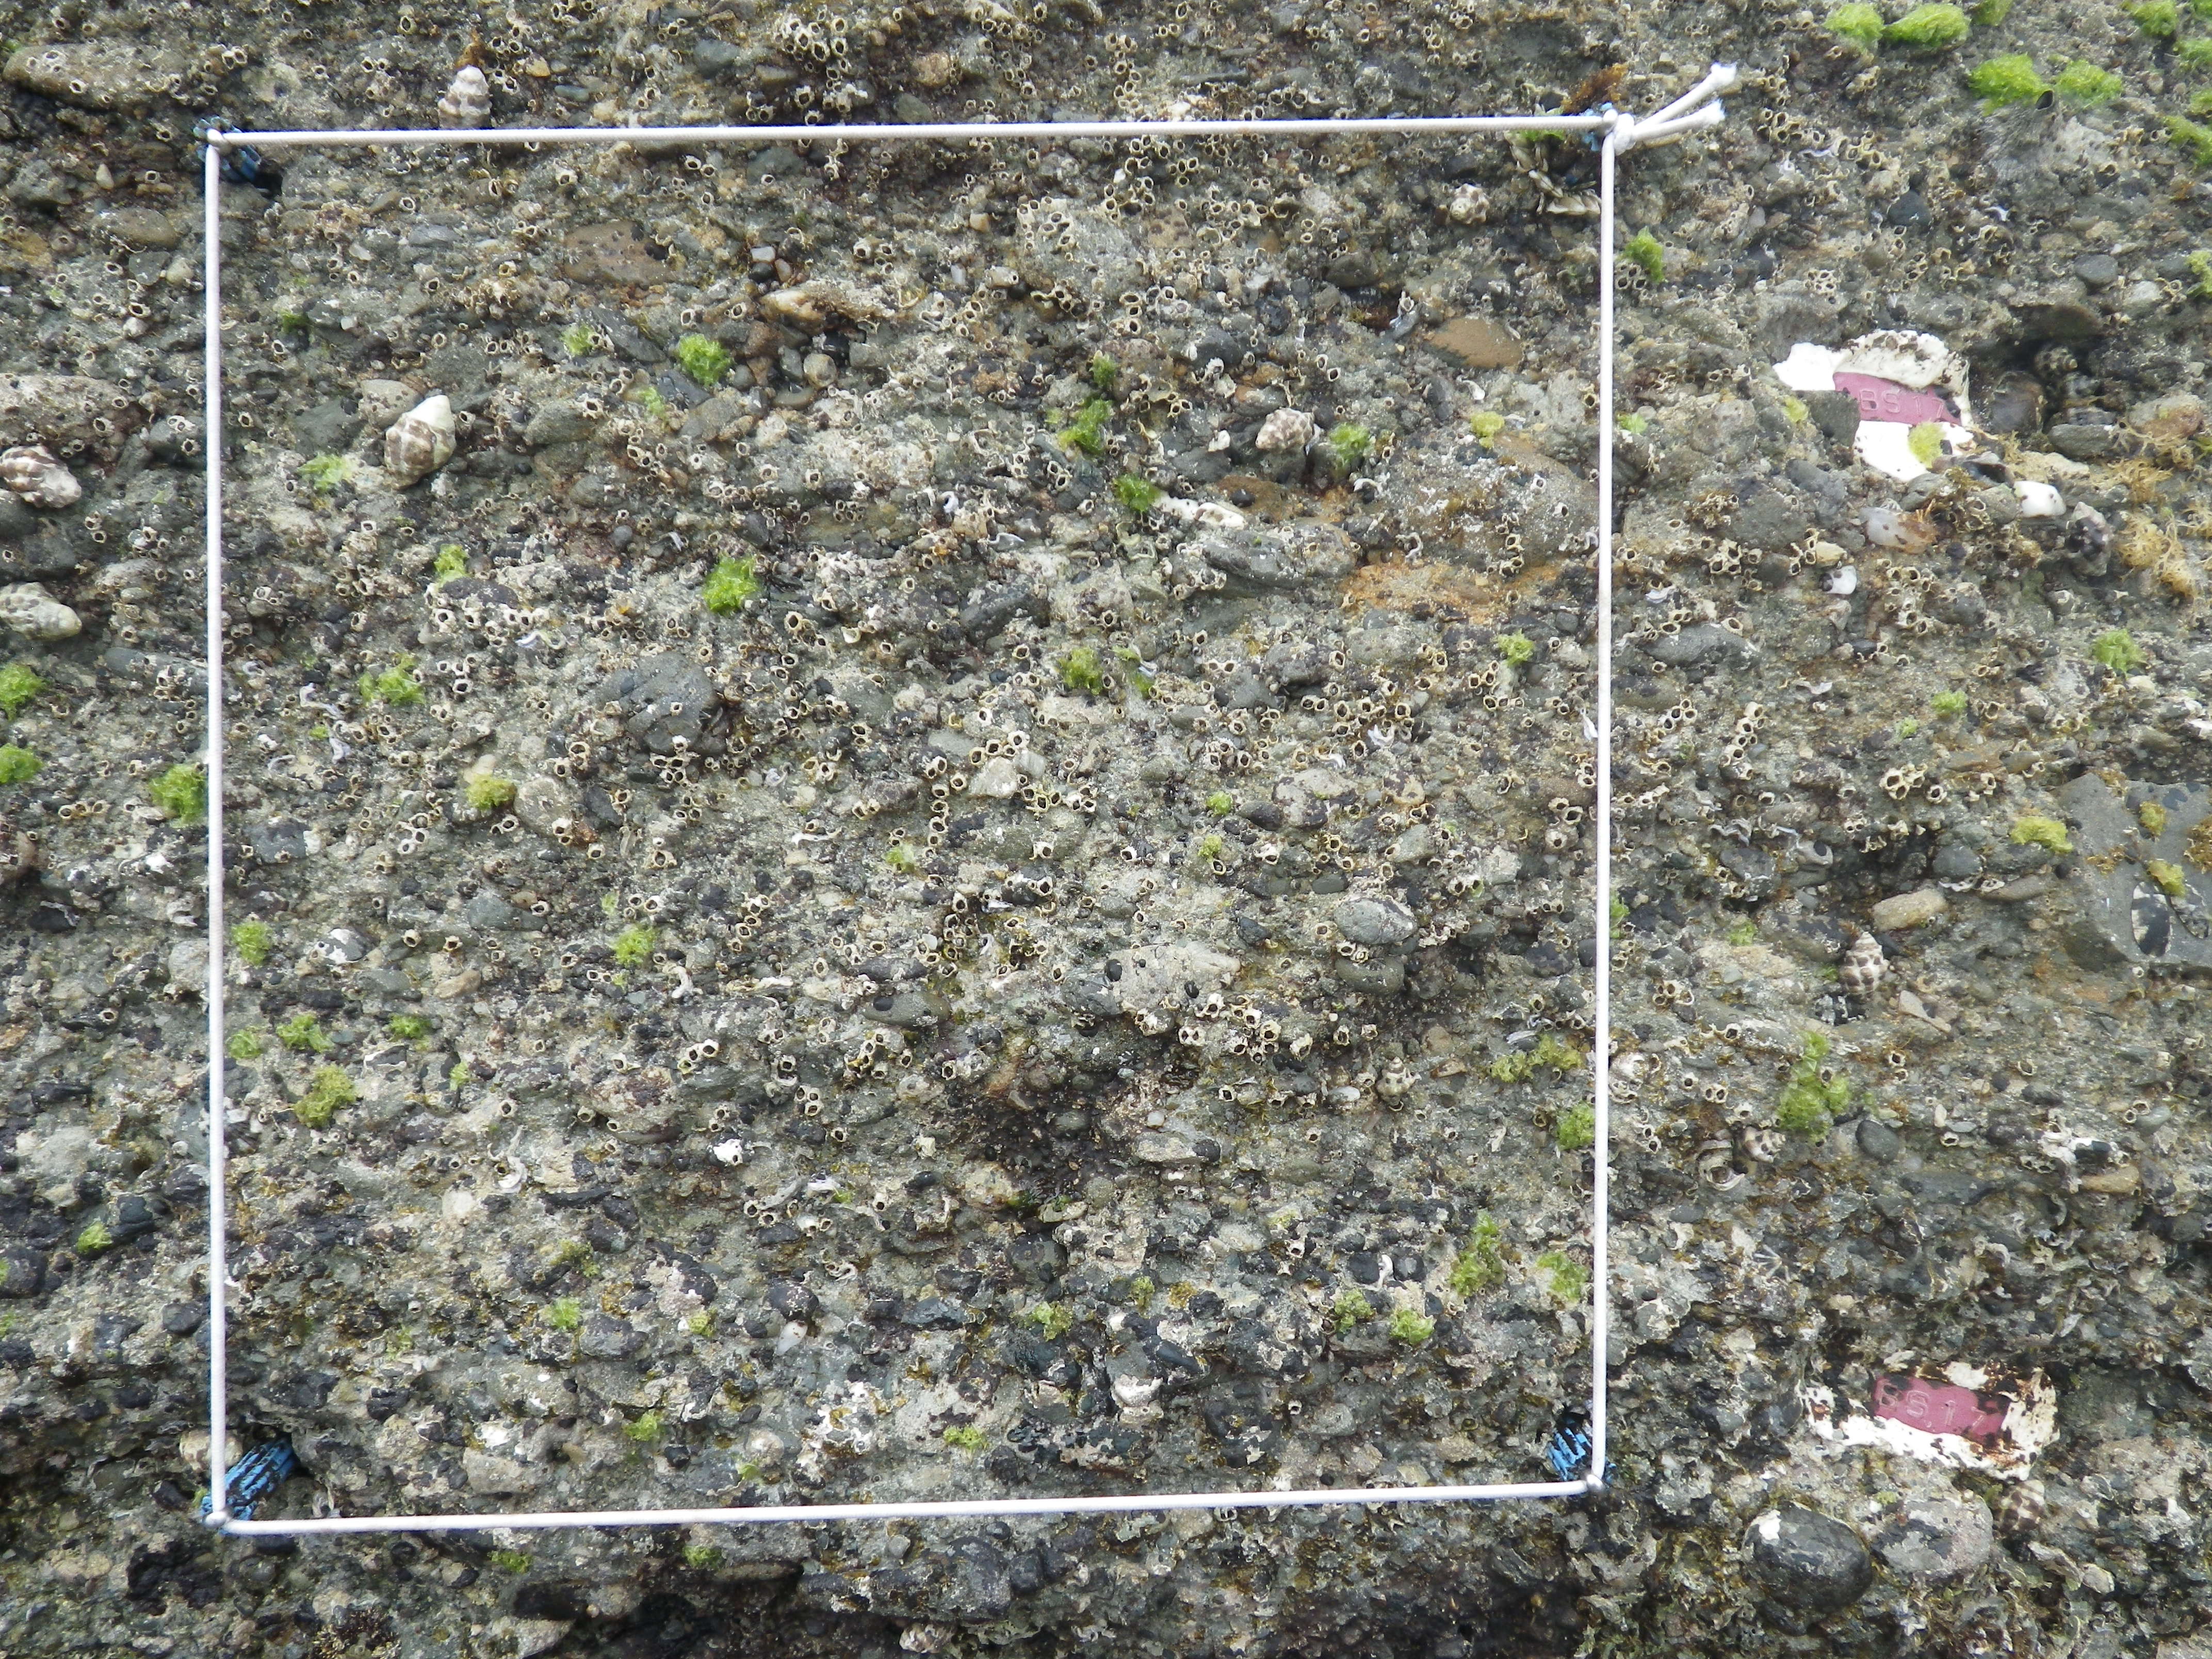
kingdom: Animalia
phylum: Arthropoda
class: Maxillopoda
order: Sessilia
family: Chthamalidae
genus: Chthamalus
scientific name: Chthamalus challengeri
